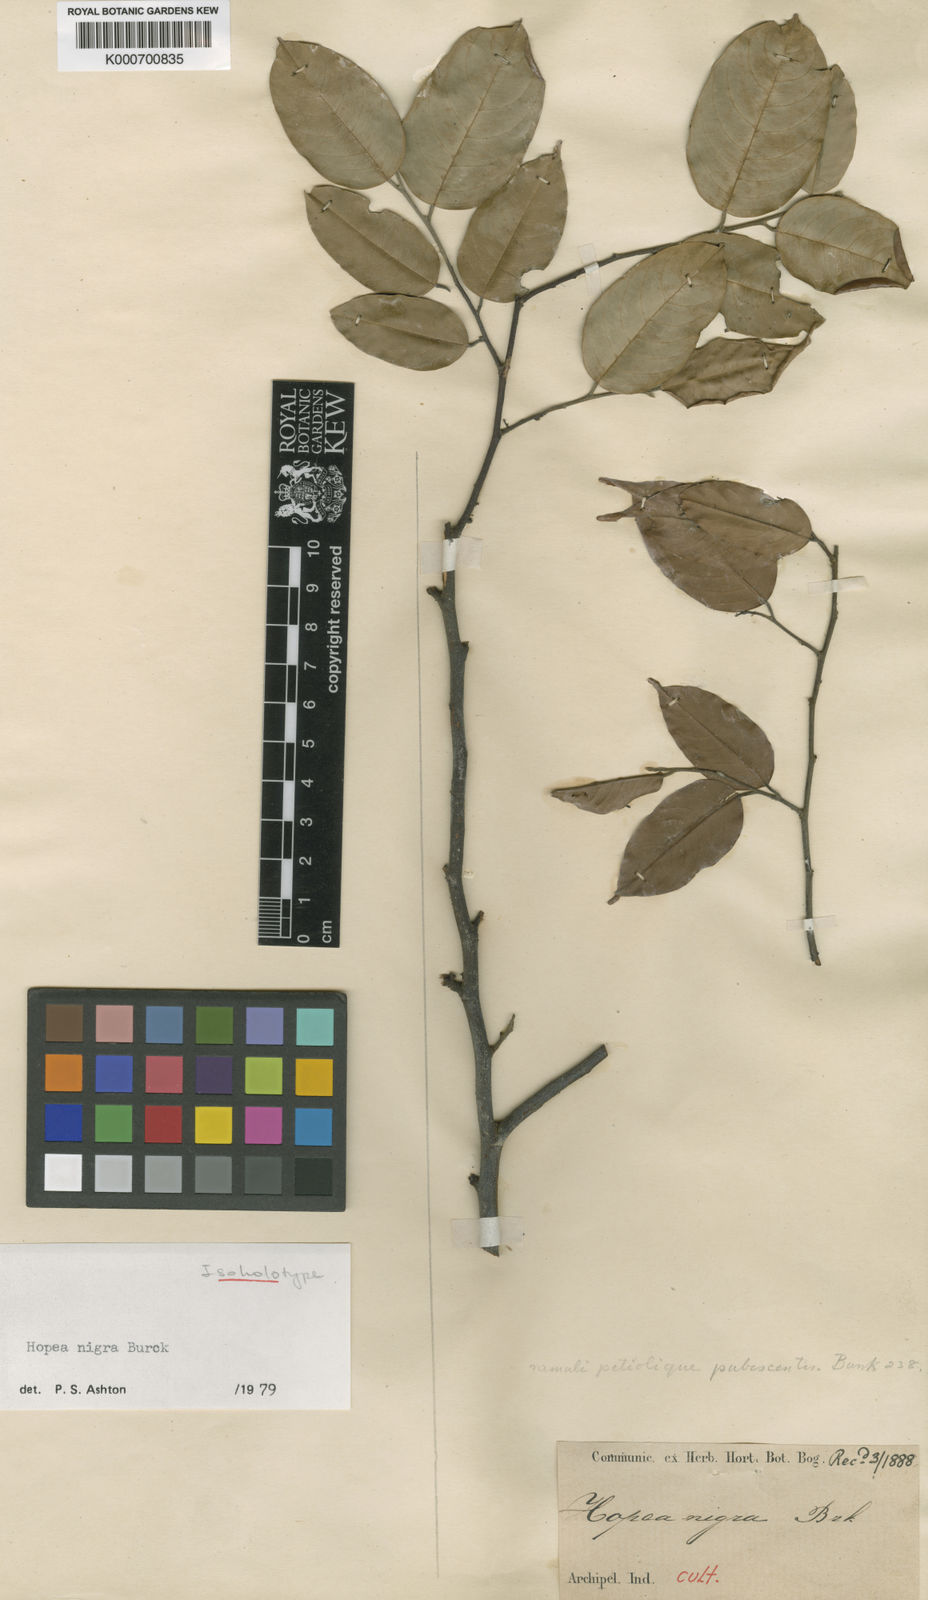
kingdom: Plantae
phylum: Tracheophyta
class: Magnoliopsida
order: Malvales
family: Dipterocarpaceae
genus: Hopea
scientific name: Hopea nigra
